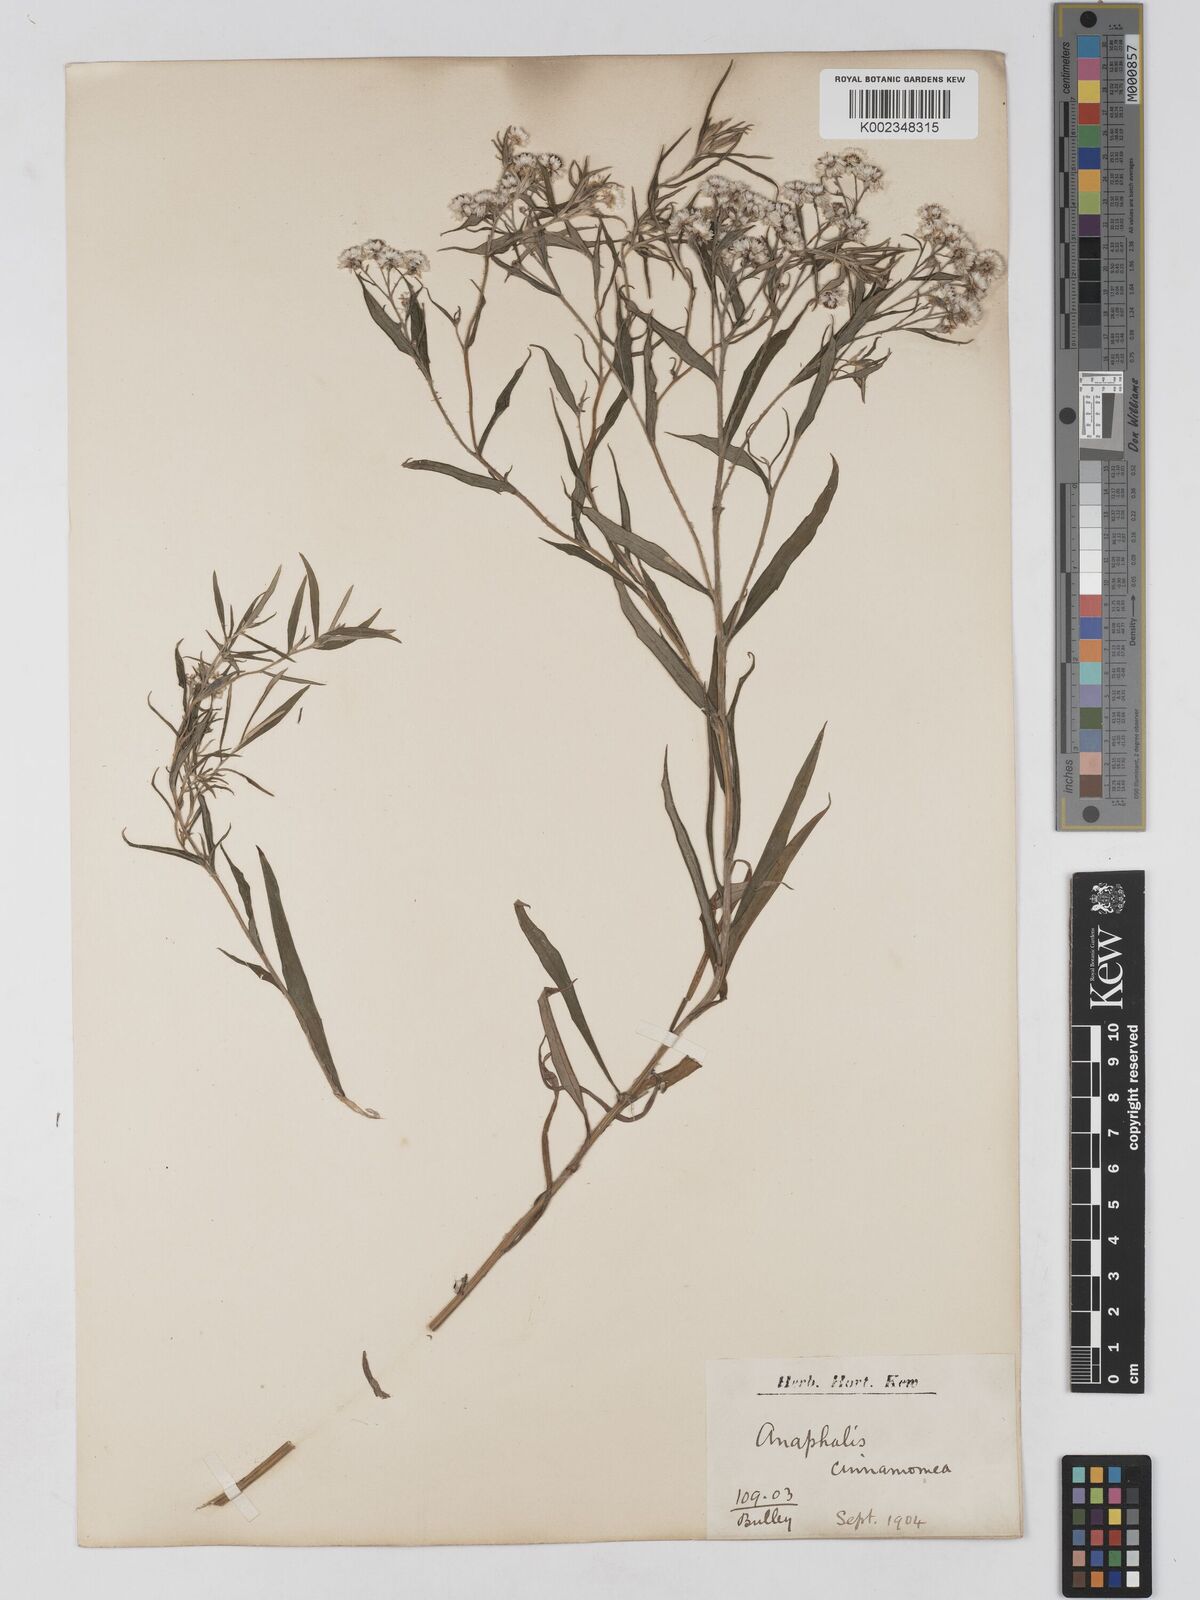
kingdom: Plantae
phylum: Tracheophyta
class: Magnoliopsida
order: Asterales
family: Asteraceae
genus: Anaphalis
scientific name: Anaphalis marcescens
